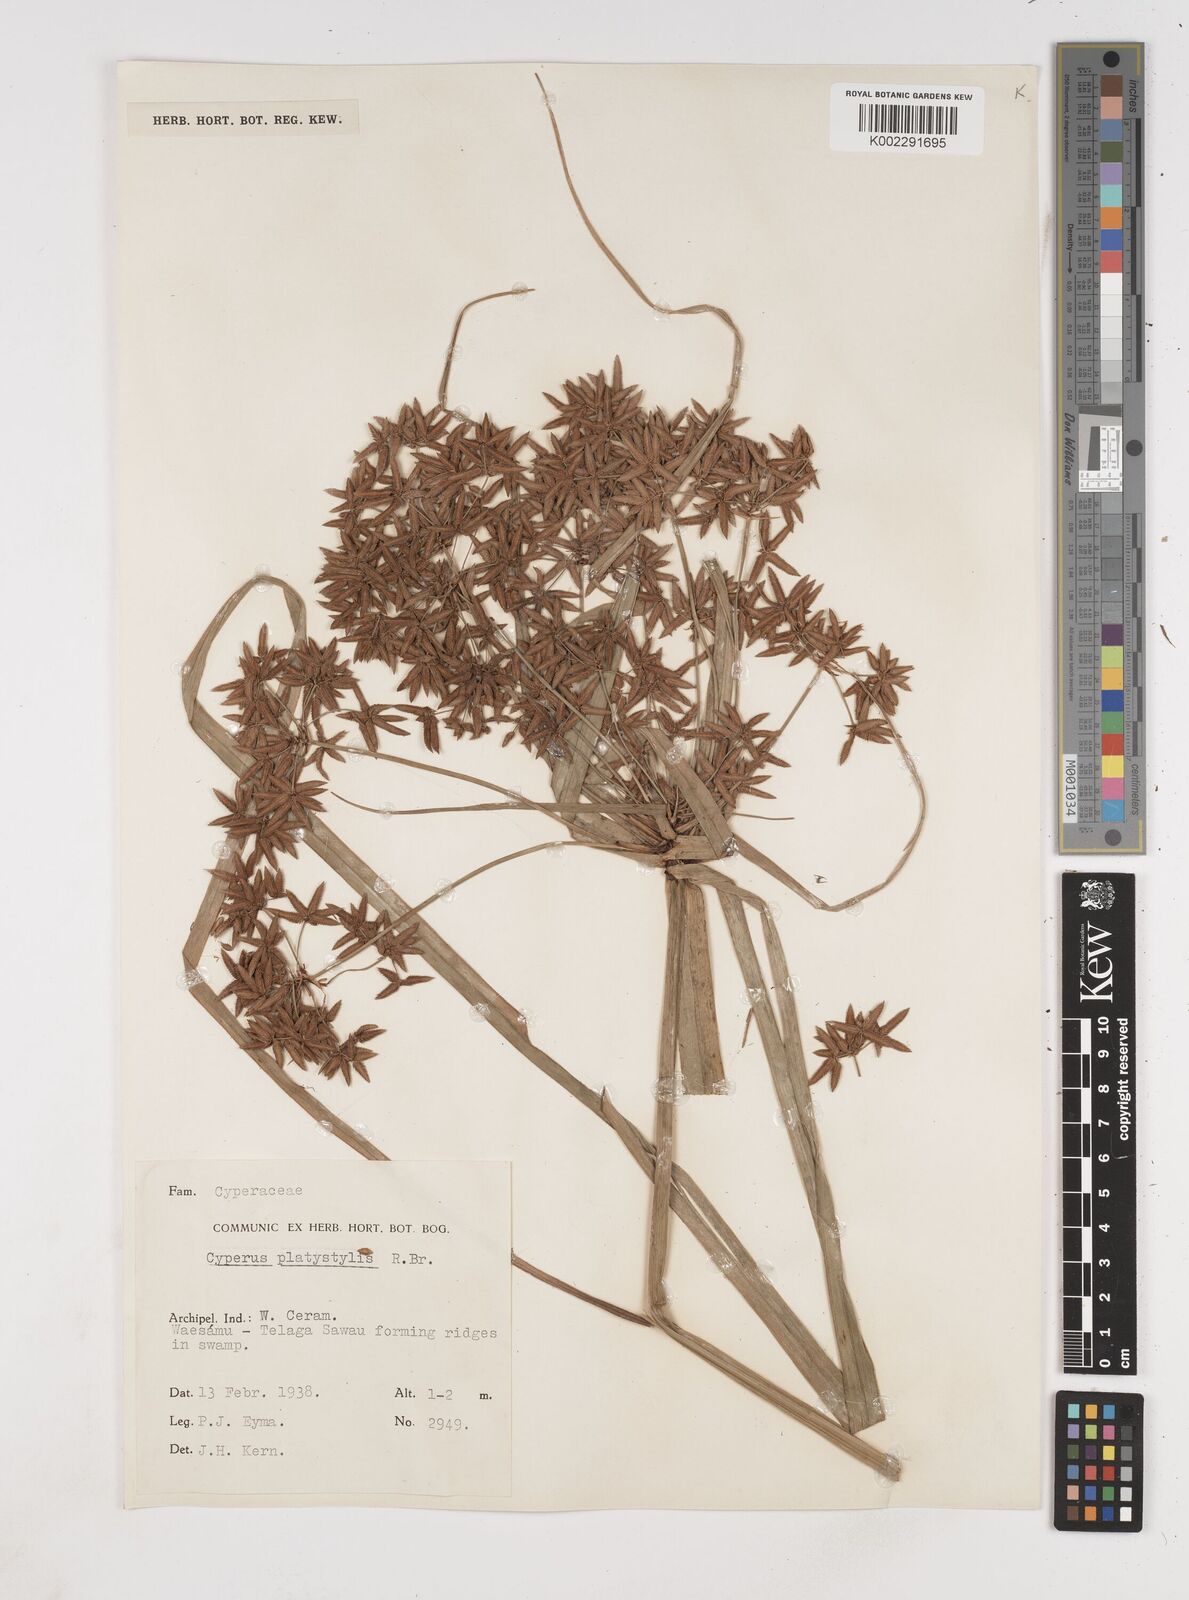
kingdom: Plantae
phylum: Tracheophyta
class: Liliopsida
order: Poales
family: Cyperaceae
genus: Cyperus
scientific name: Cyperus platystylis
